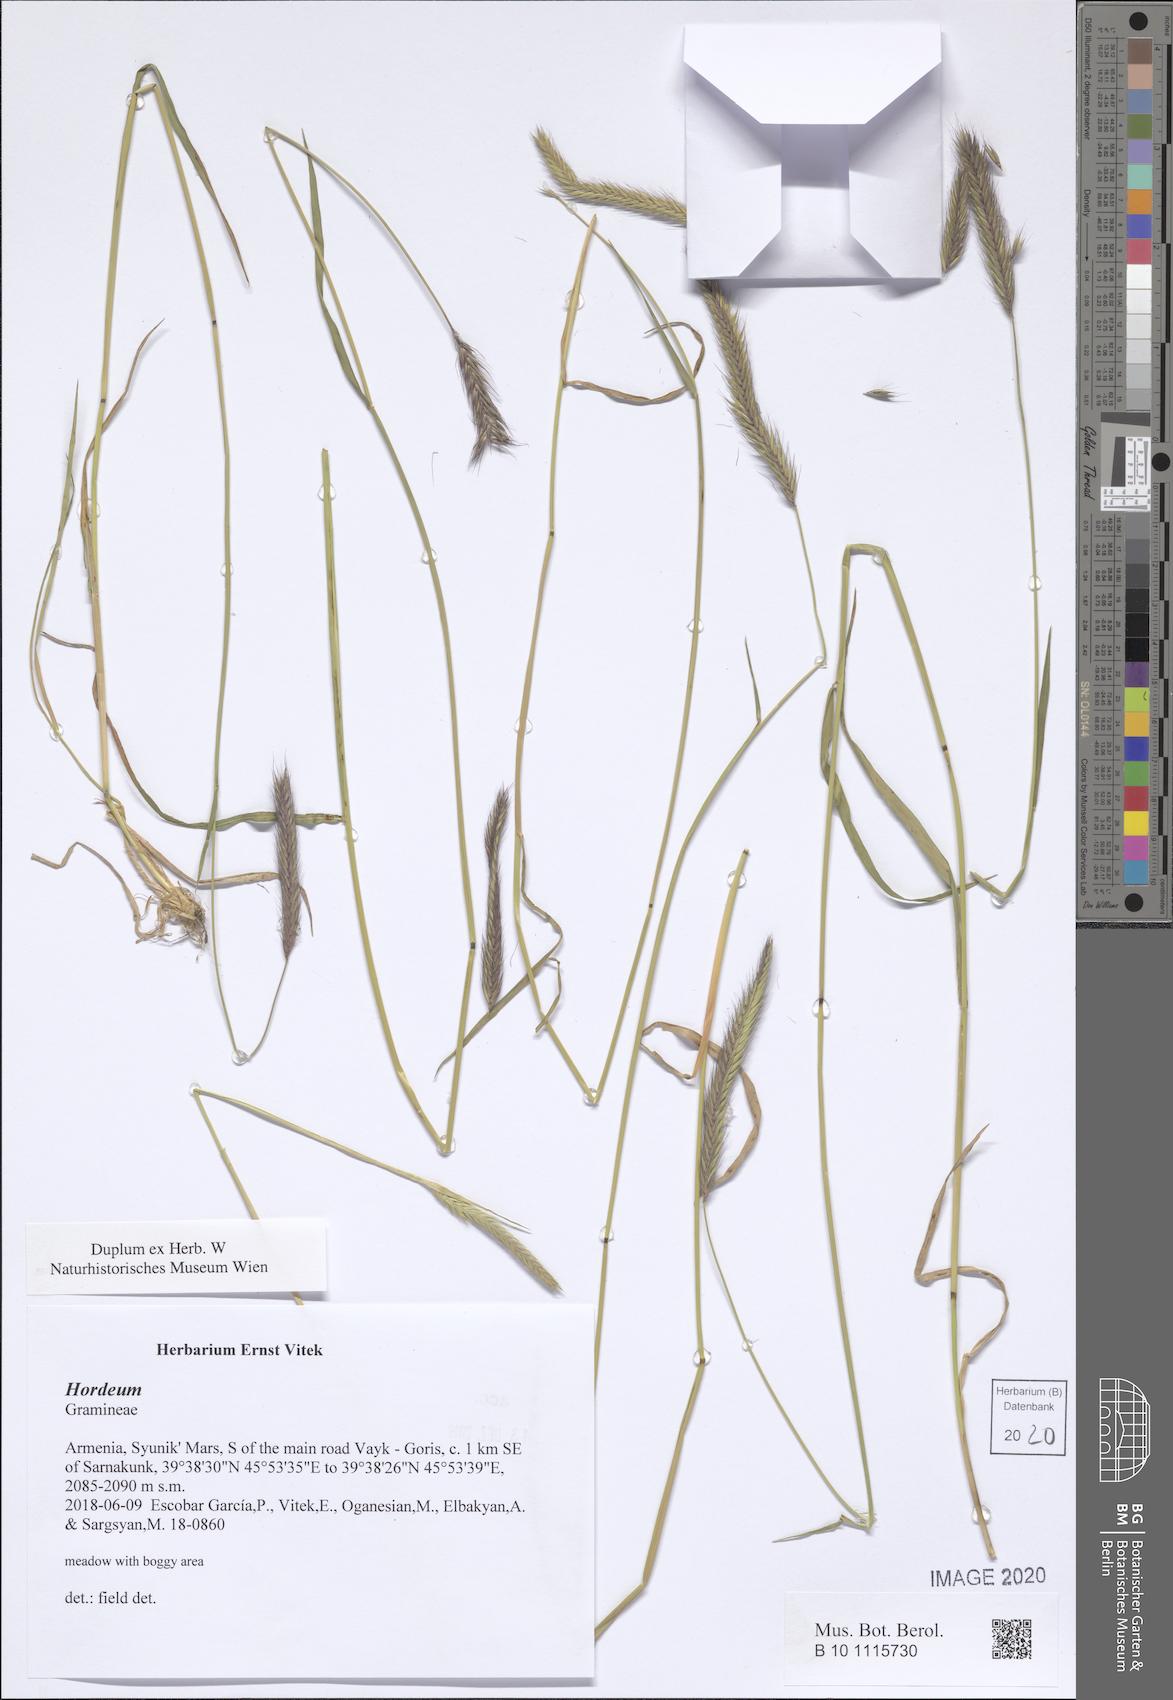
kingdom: Plantae
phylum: Tracheophyta
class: Liliopsida
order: Poales
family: Poaceae
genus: Hordeum
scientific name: Hordeum
